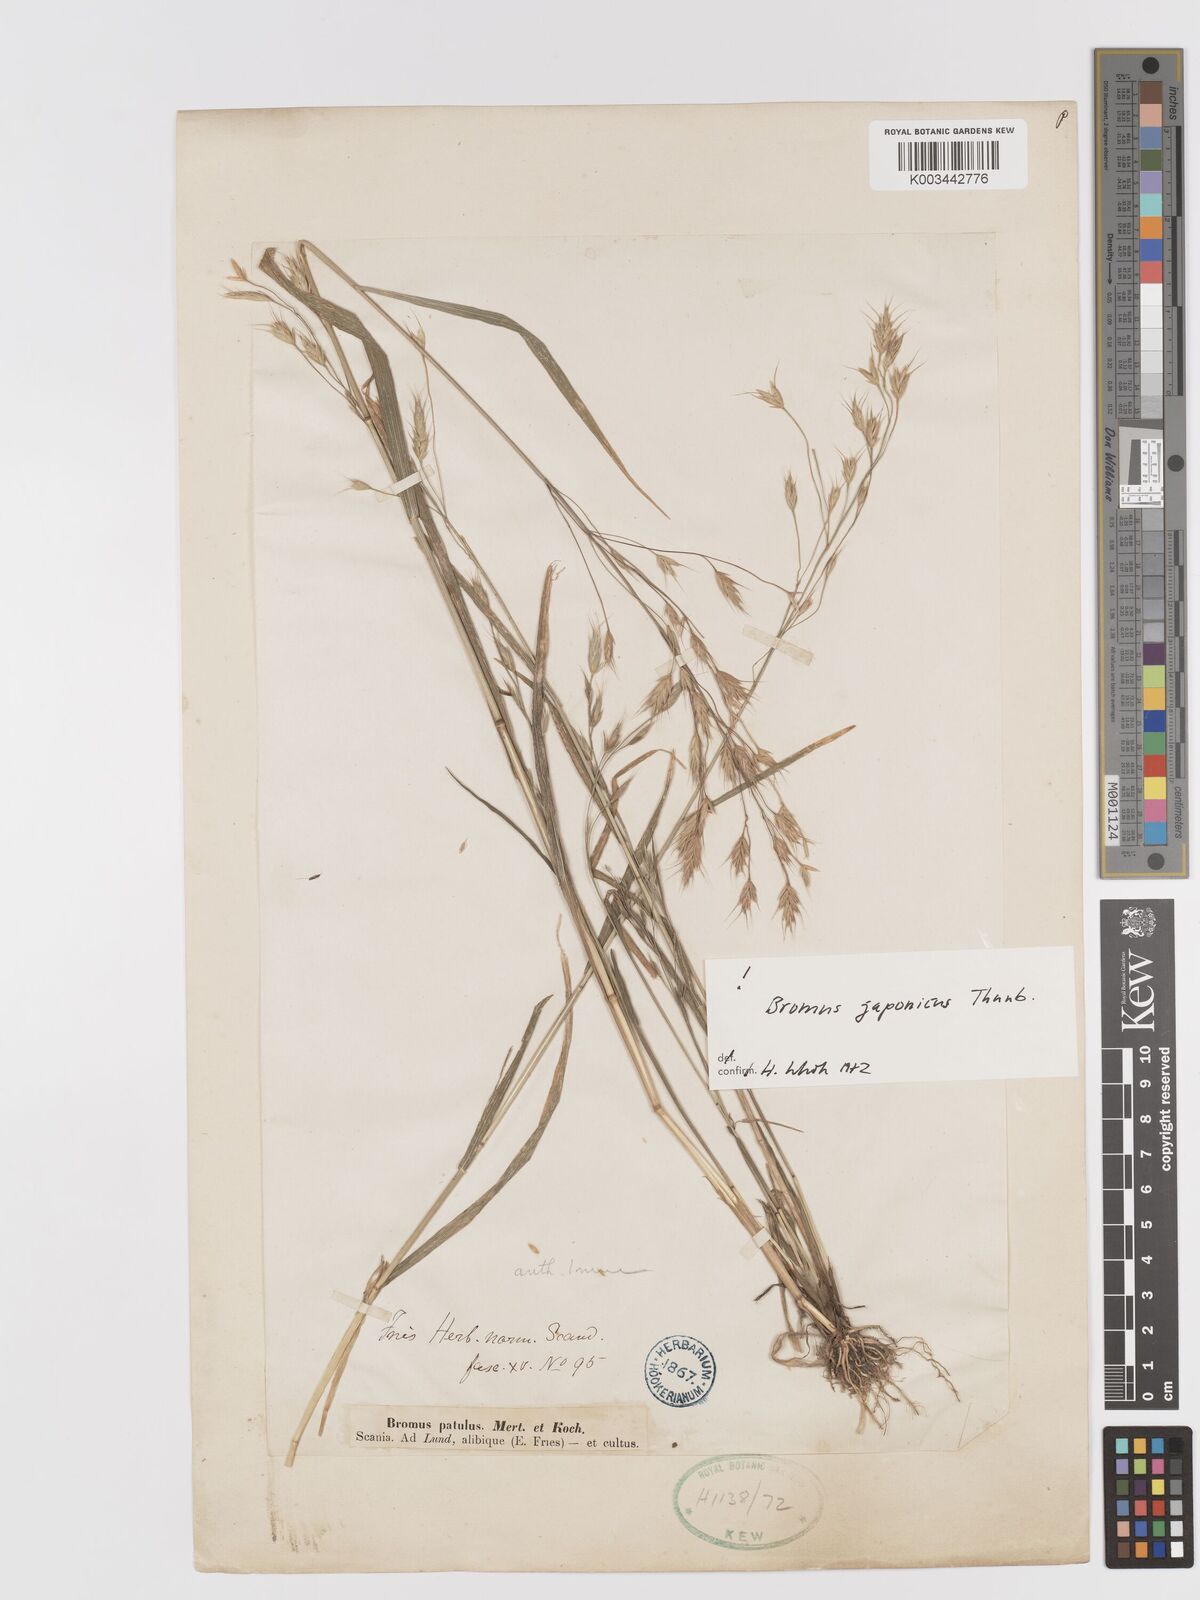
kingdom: Plantae
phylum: Tracheophyta
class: Liliopsida
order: Poales
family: Poaceae
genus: Bromus
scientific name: Bromus japonicus
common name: Japanese brome
